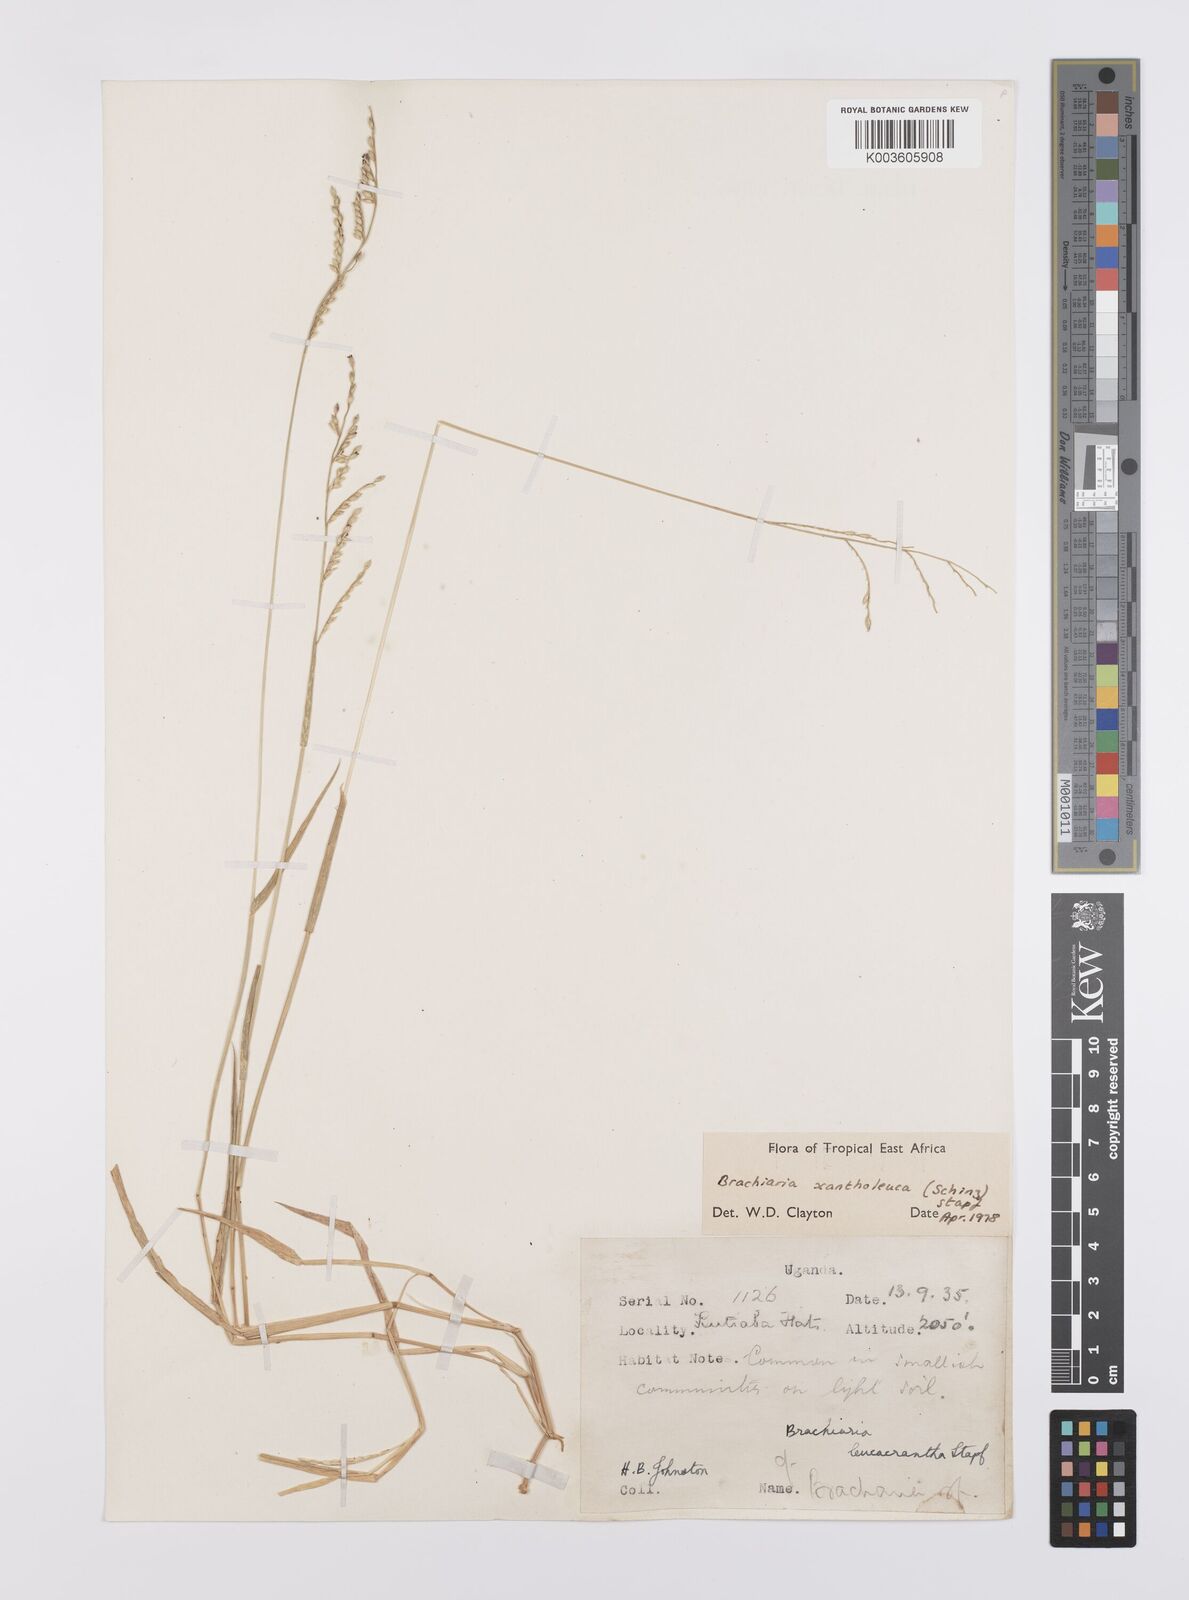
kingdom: Plantae
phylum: Tracheophyta
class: Liliopsida
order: Poales
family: Poaceae
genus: Urochloa
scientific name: Urochloa xantholeuca
